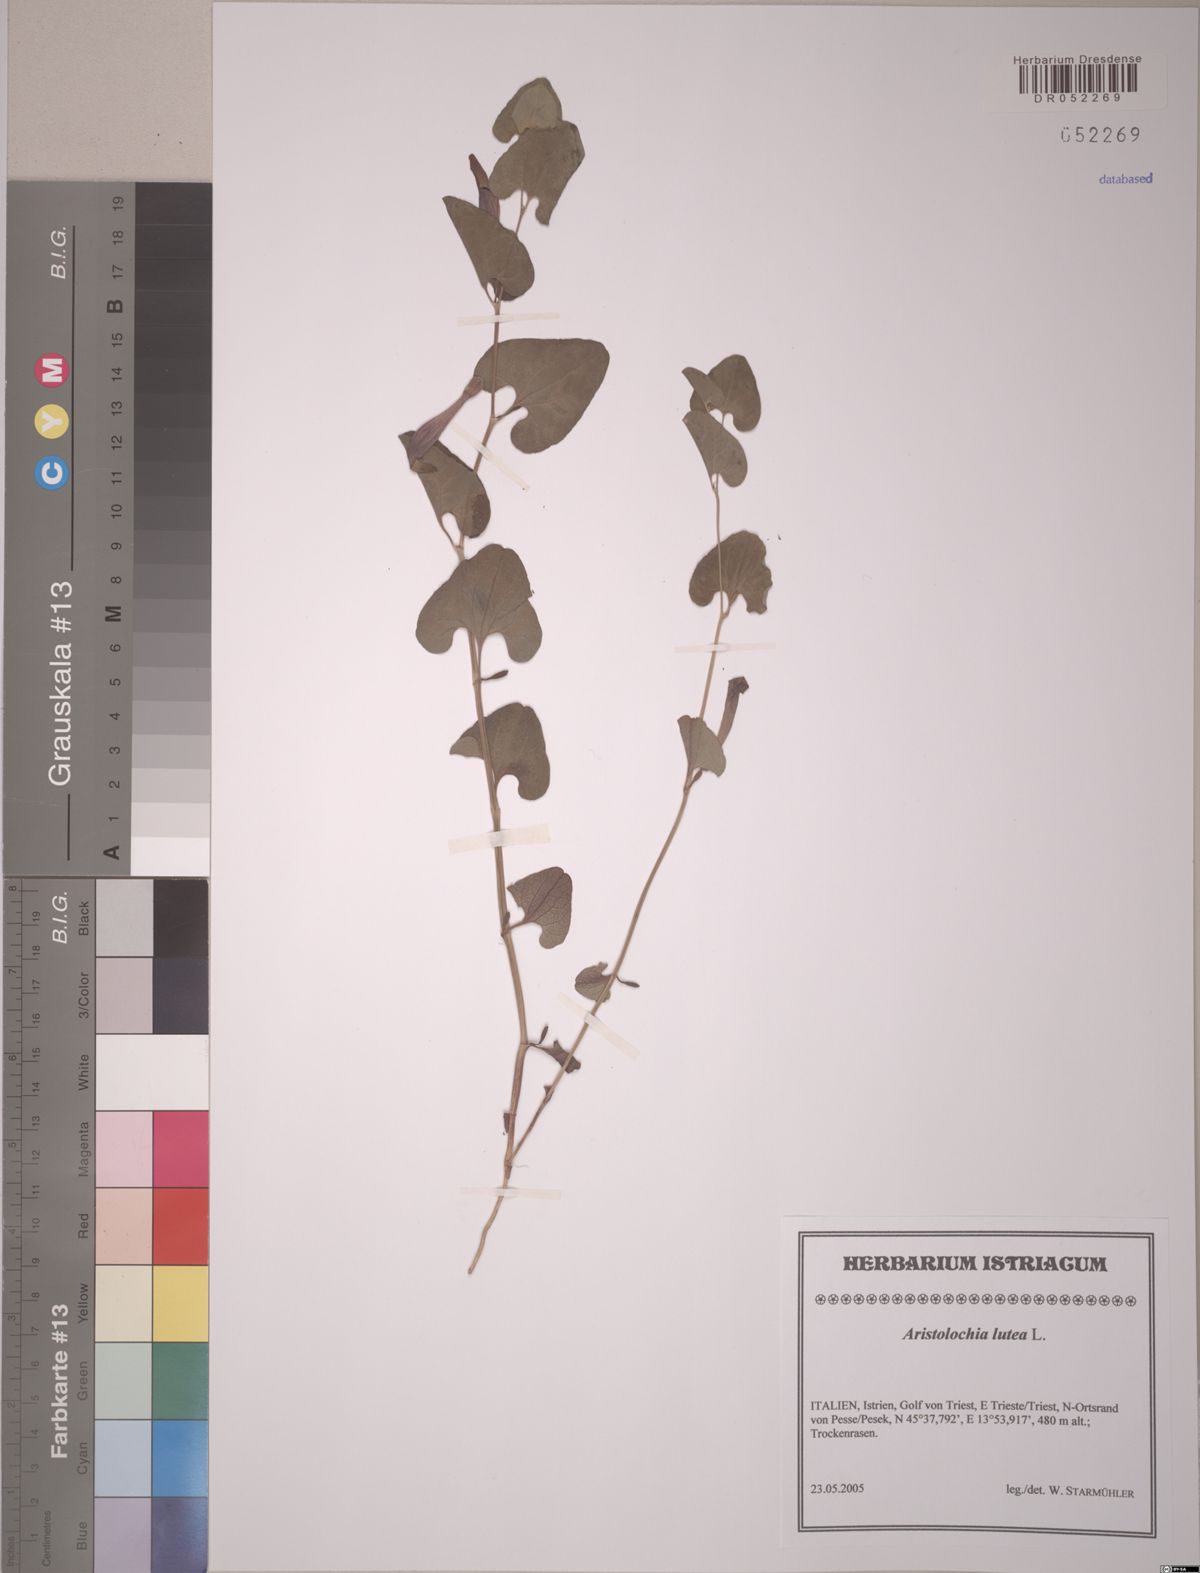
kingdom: Plantae
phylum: Tracheophyta
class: Magnoliopsida
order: Piperales
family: Aristolochiaceae
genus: Aristolochia
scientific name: Aristolochia lutea
